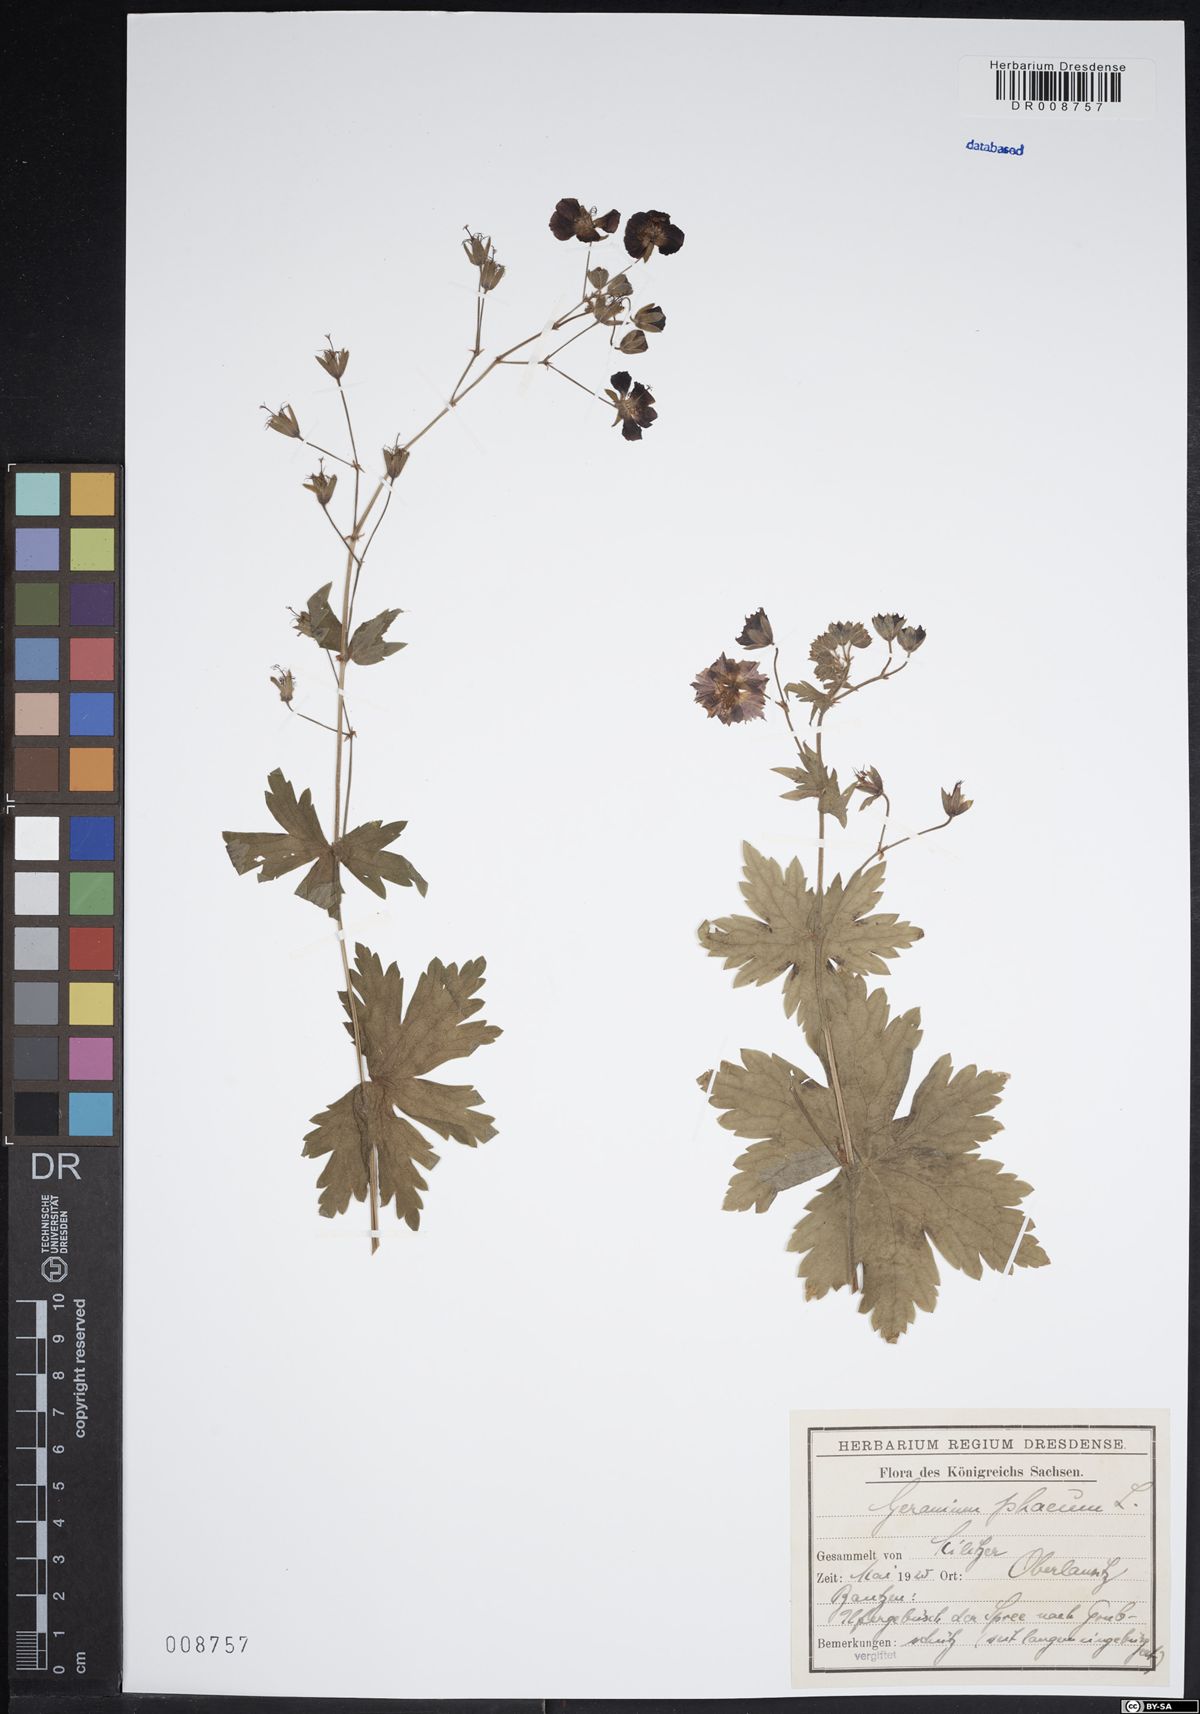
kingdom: Plantae
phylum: Tracheophyta
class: Magnoliopsida
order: Geraniales
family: Geraniaceae
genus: Geranium
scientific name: Geranium phaeum
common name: Dusky crane's-bill
